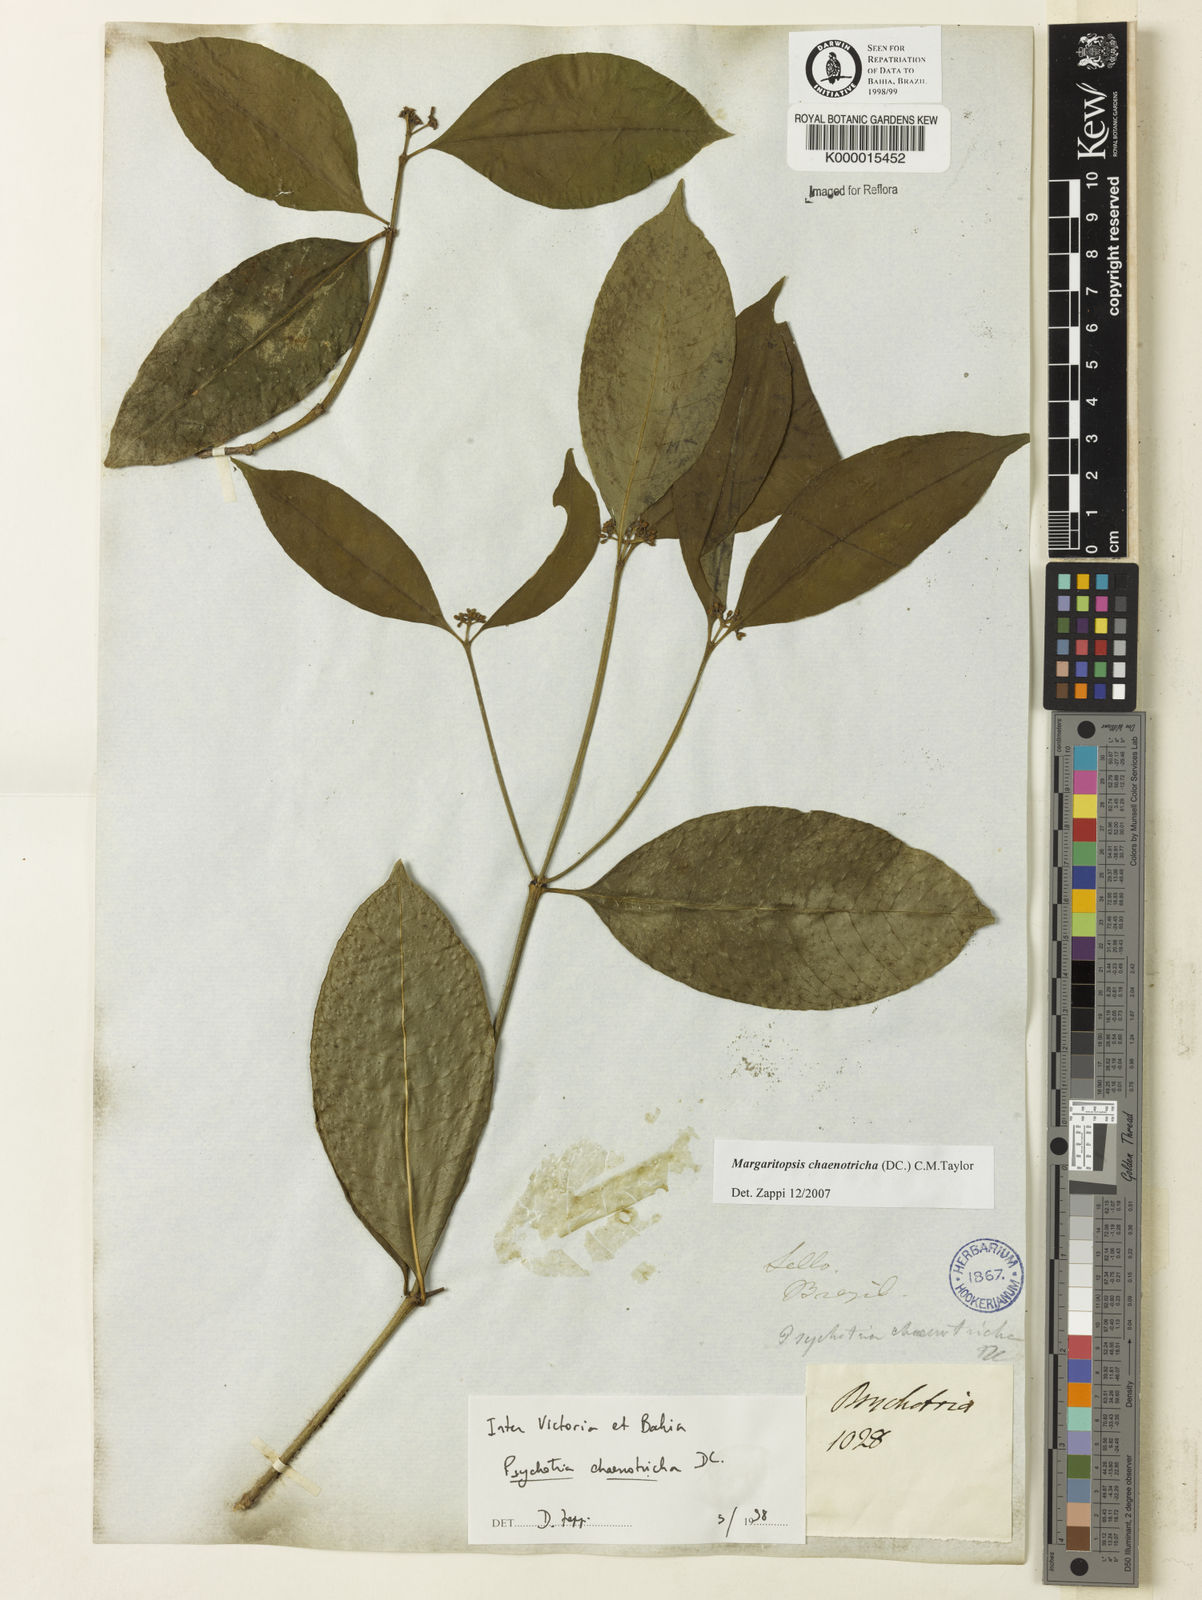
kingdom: Plantae
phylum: Tracheophyta
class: Magnoliopsida
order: Gentianales
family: Rubiaceae
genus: Eumachia
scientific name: Eumachia chaenotricha
